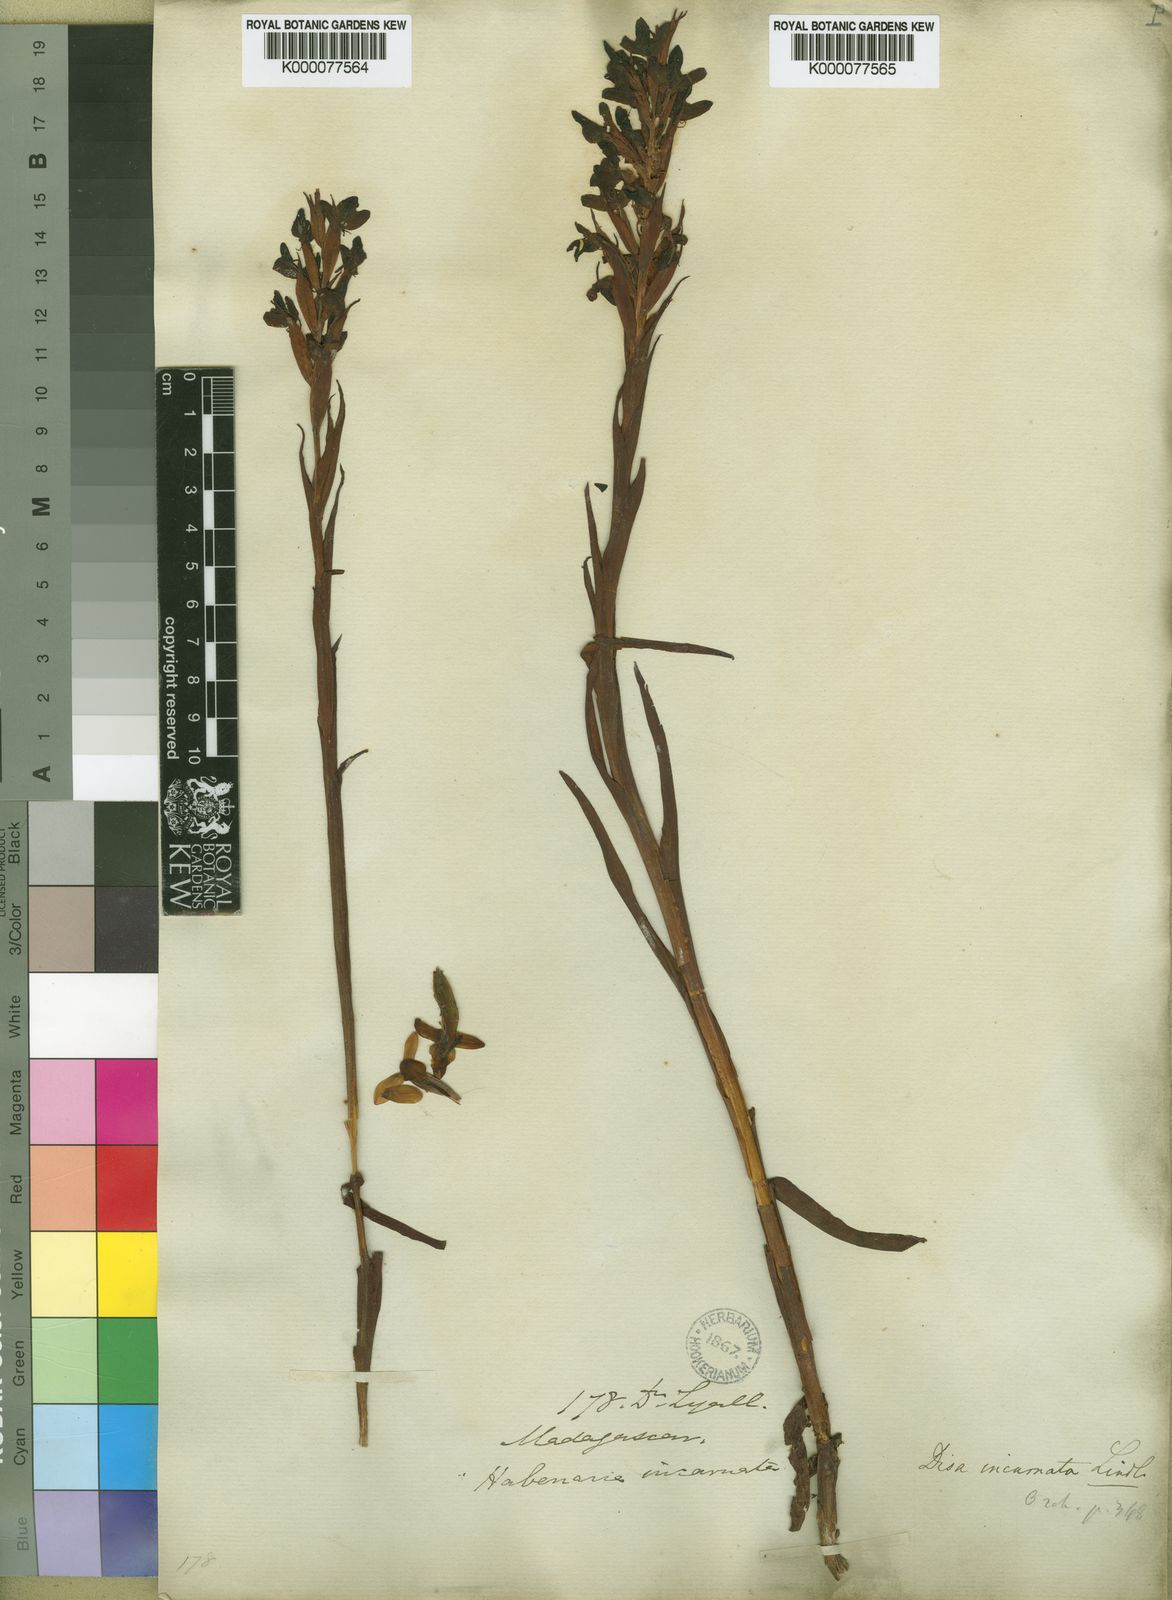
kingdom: Plantae
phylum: Tracheophyta
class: Liliopsida
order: Asparagales
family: Orchidaceae
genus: Disa
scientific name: Disa incarnata
